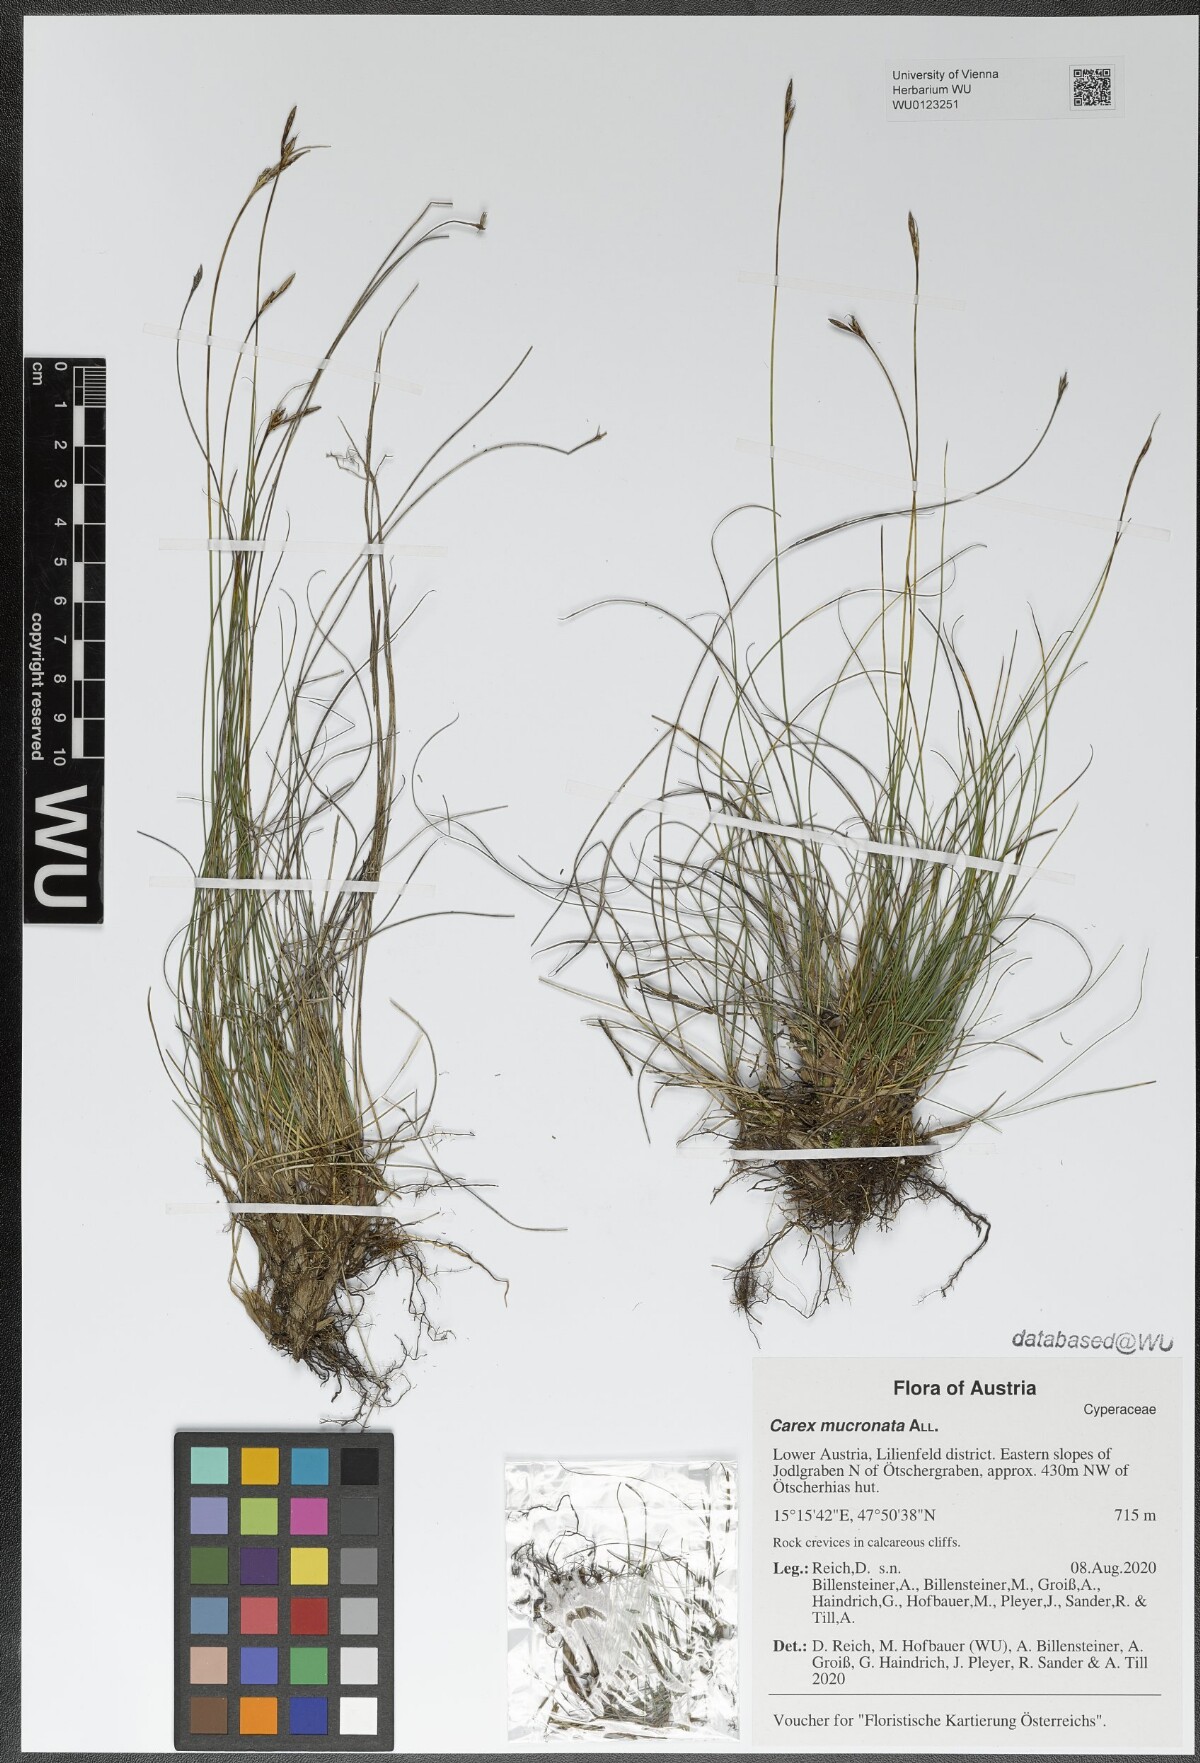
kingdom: Plantae
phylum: Tracheophyta
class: Liliopsida
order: Poales
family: Cyperaceae
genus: Carex
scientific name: Carex mucronata
